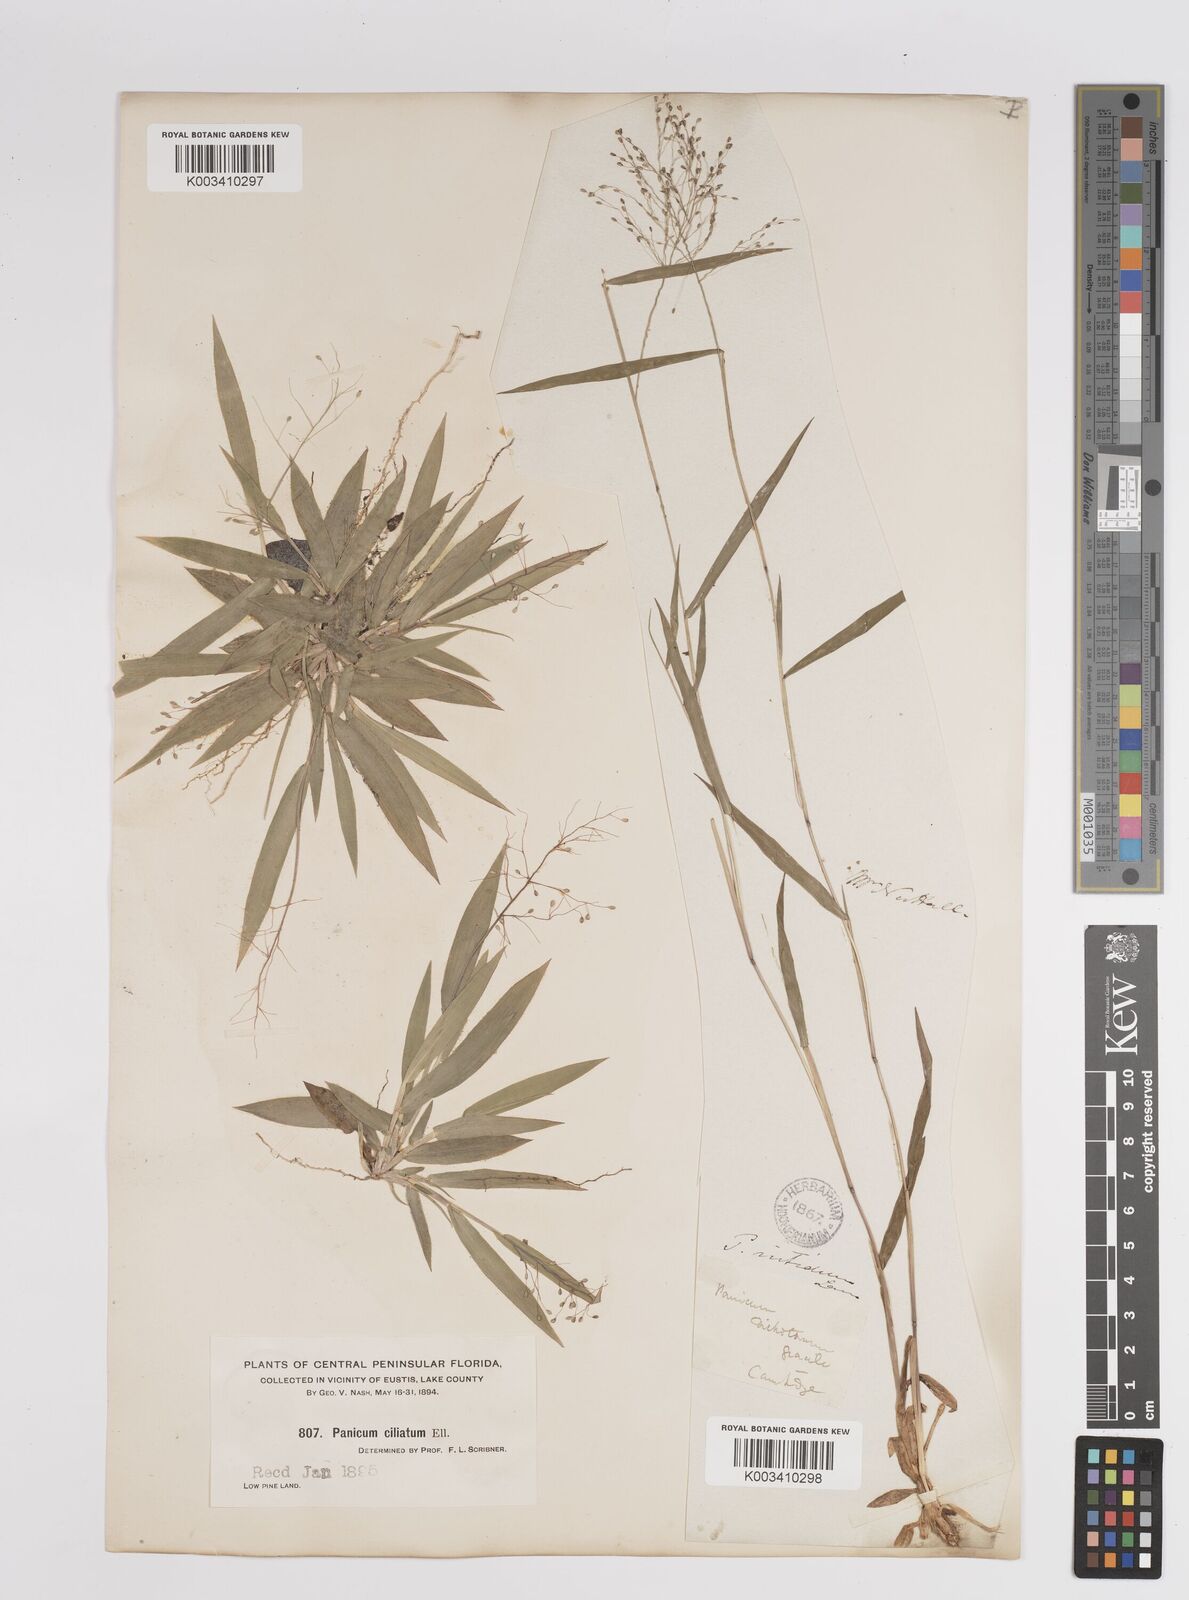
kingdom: Plantae
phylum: Tracheophyta
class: Liliopsida
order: Poales
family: Poaceae
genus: Dichanthelium
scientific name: Dichanthelium strigosum
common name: Cushion-tuft panic grass
